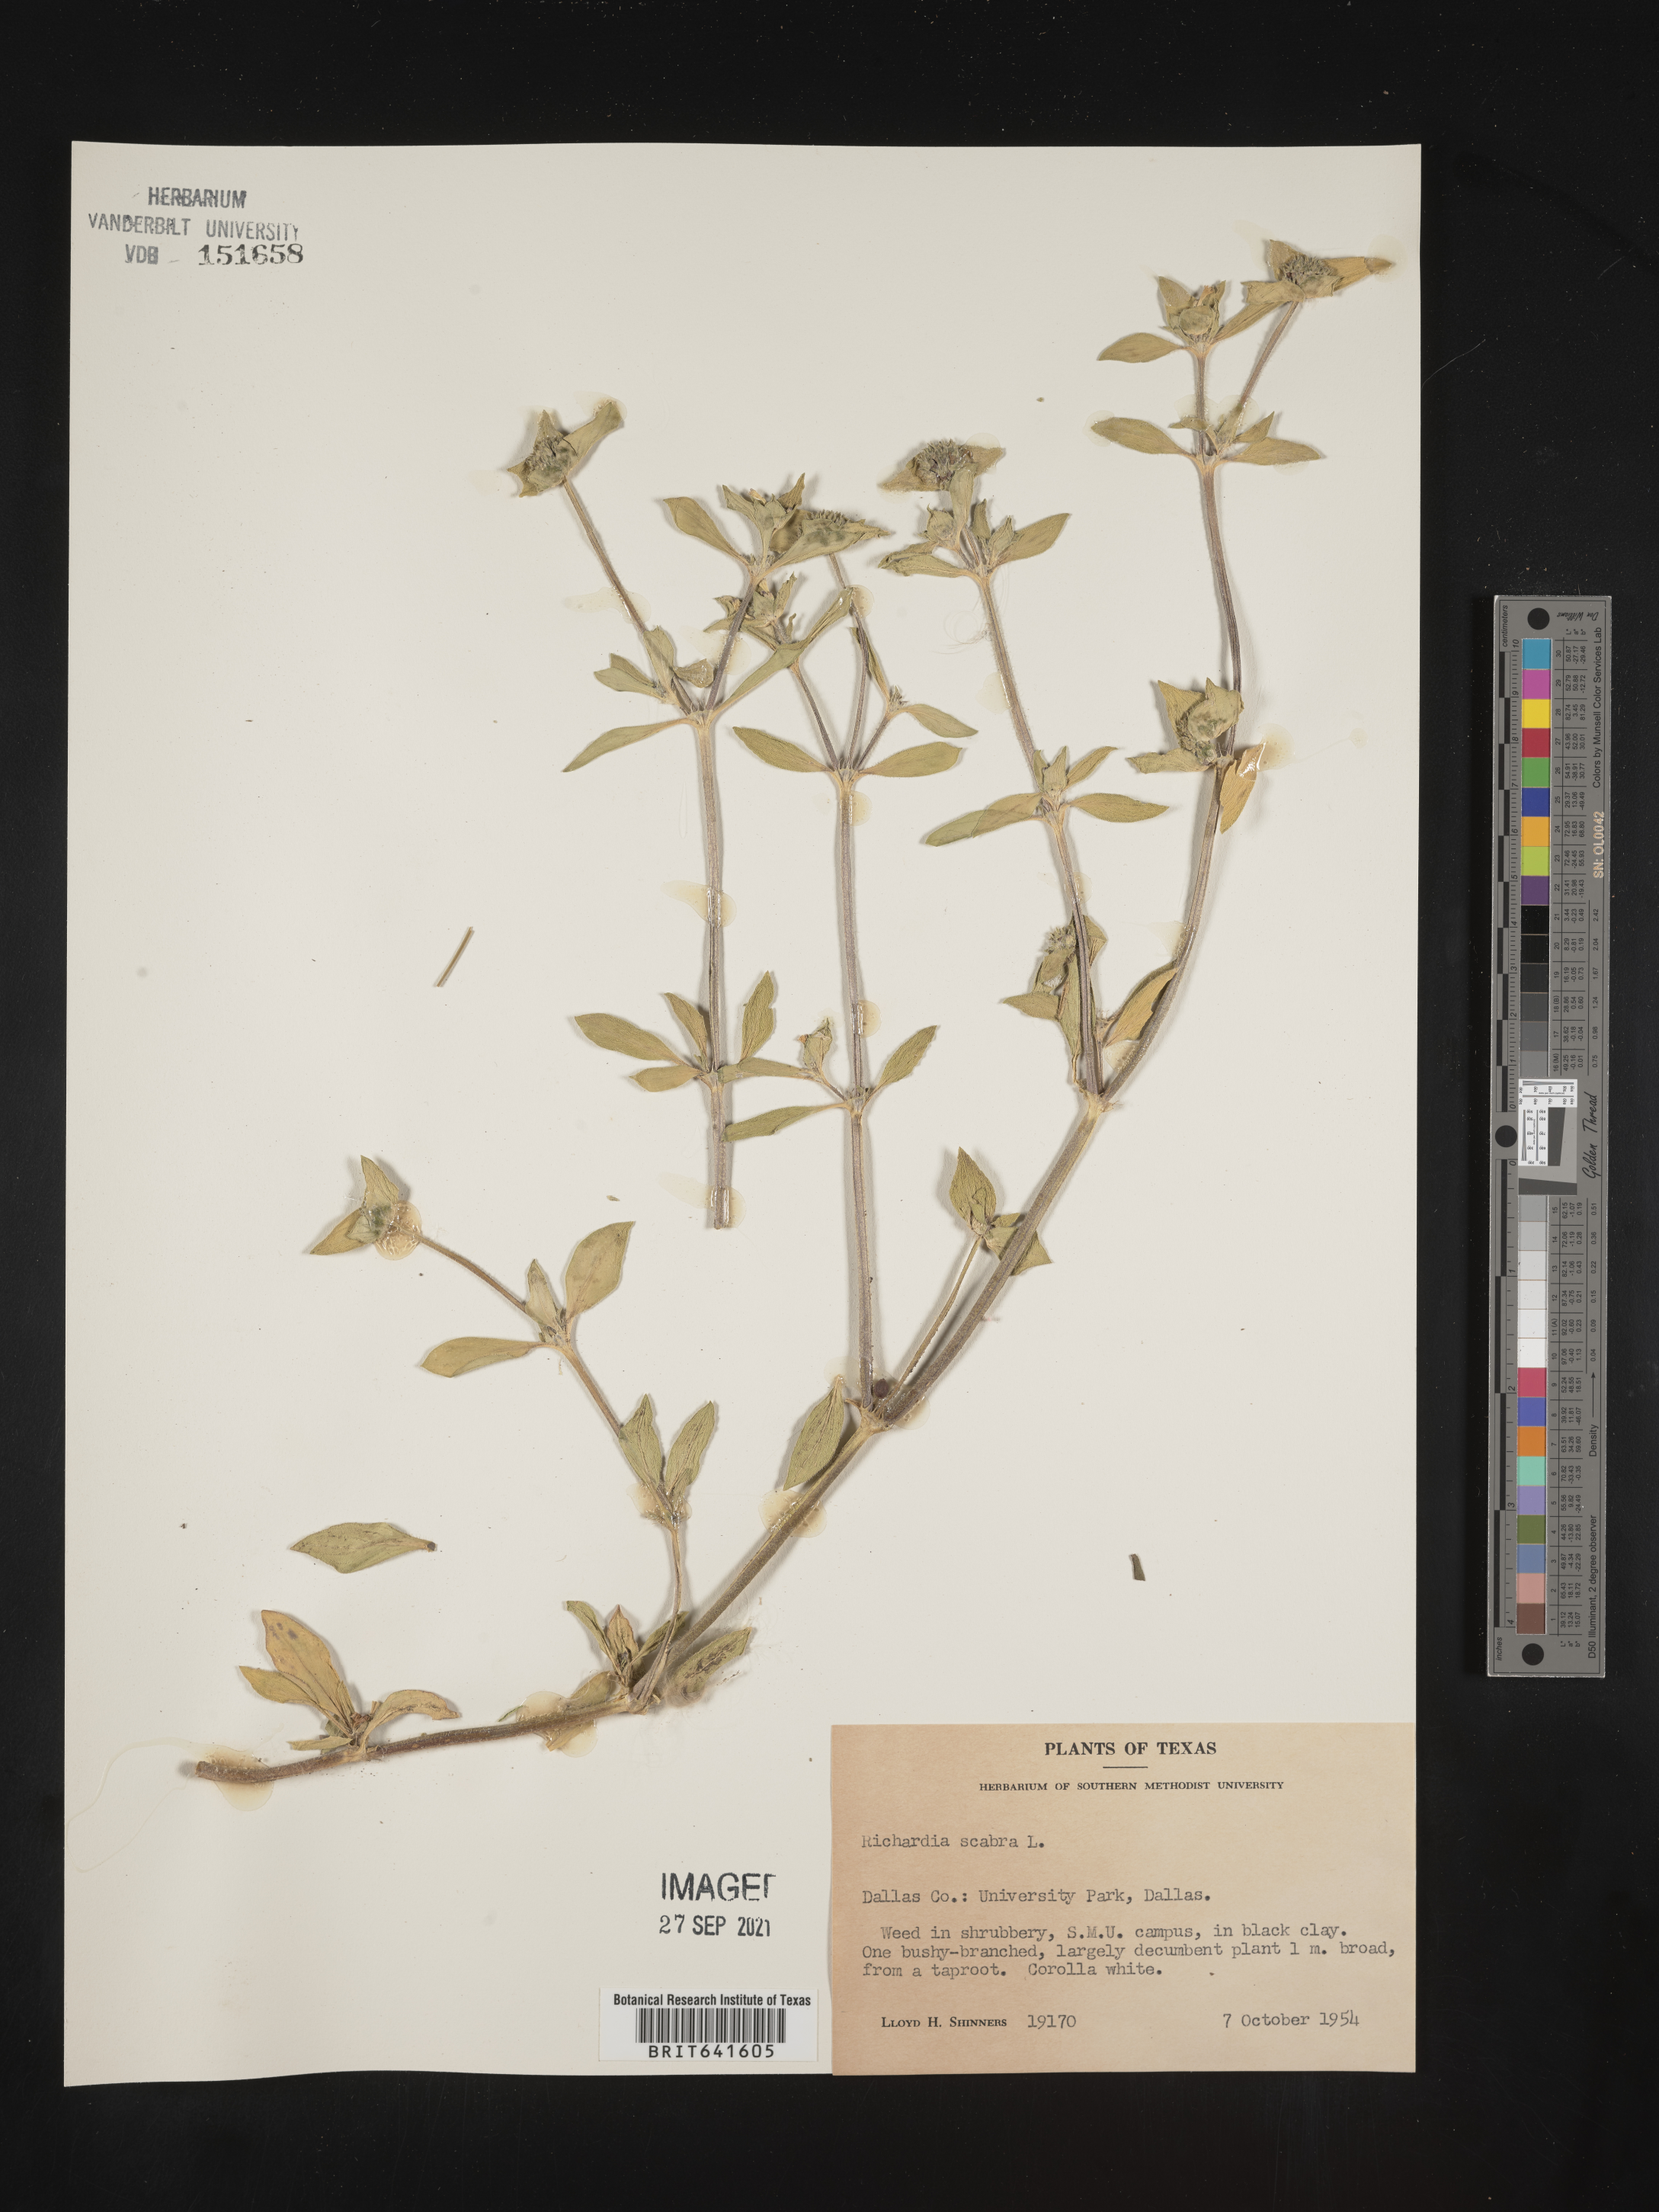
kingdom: Plantae
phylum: Tracheophyta
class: Magnoliopsida
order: Gentianales
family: Rubiaceae
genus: Richardia
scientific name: Richardia scabra
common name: Rough mexican clover
